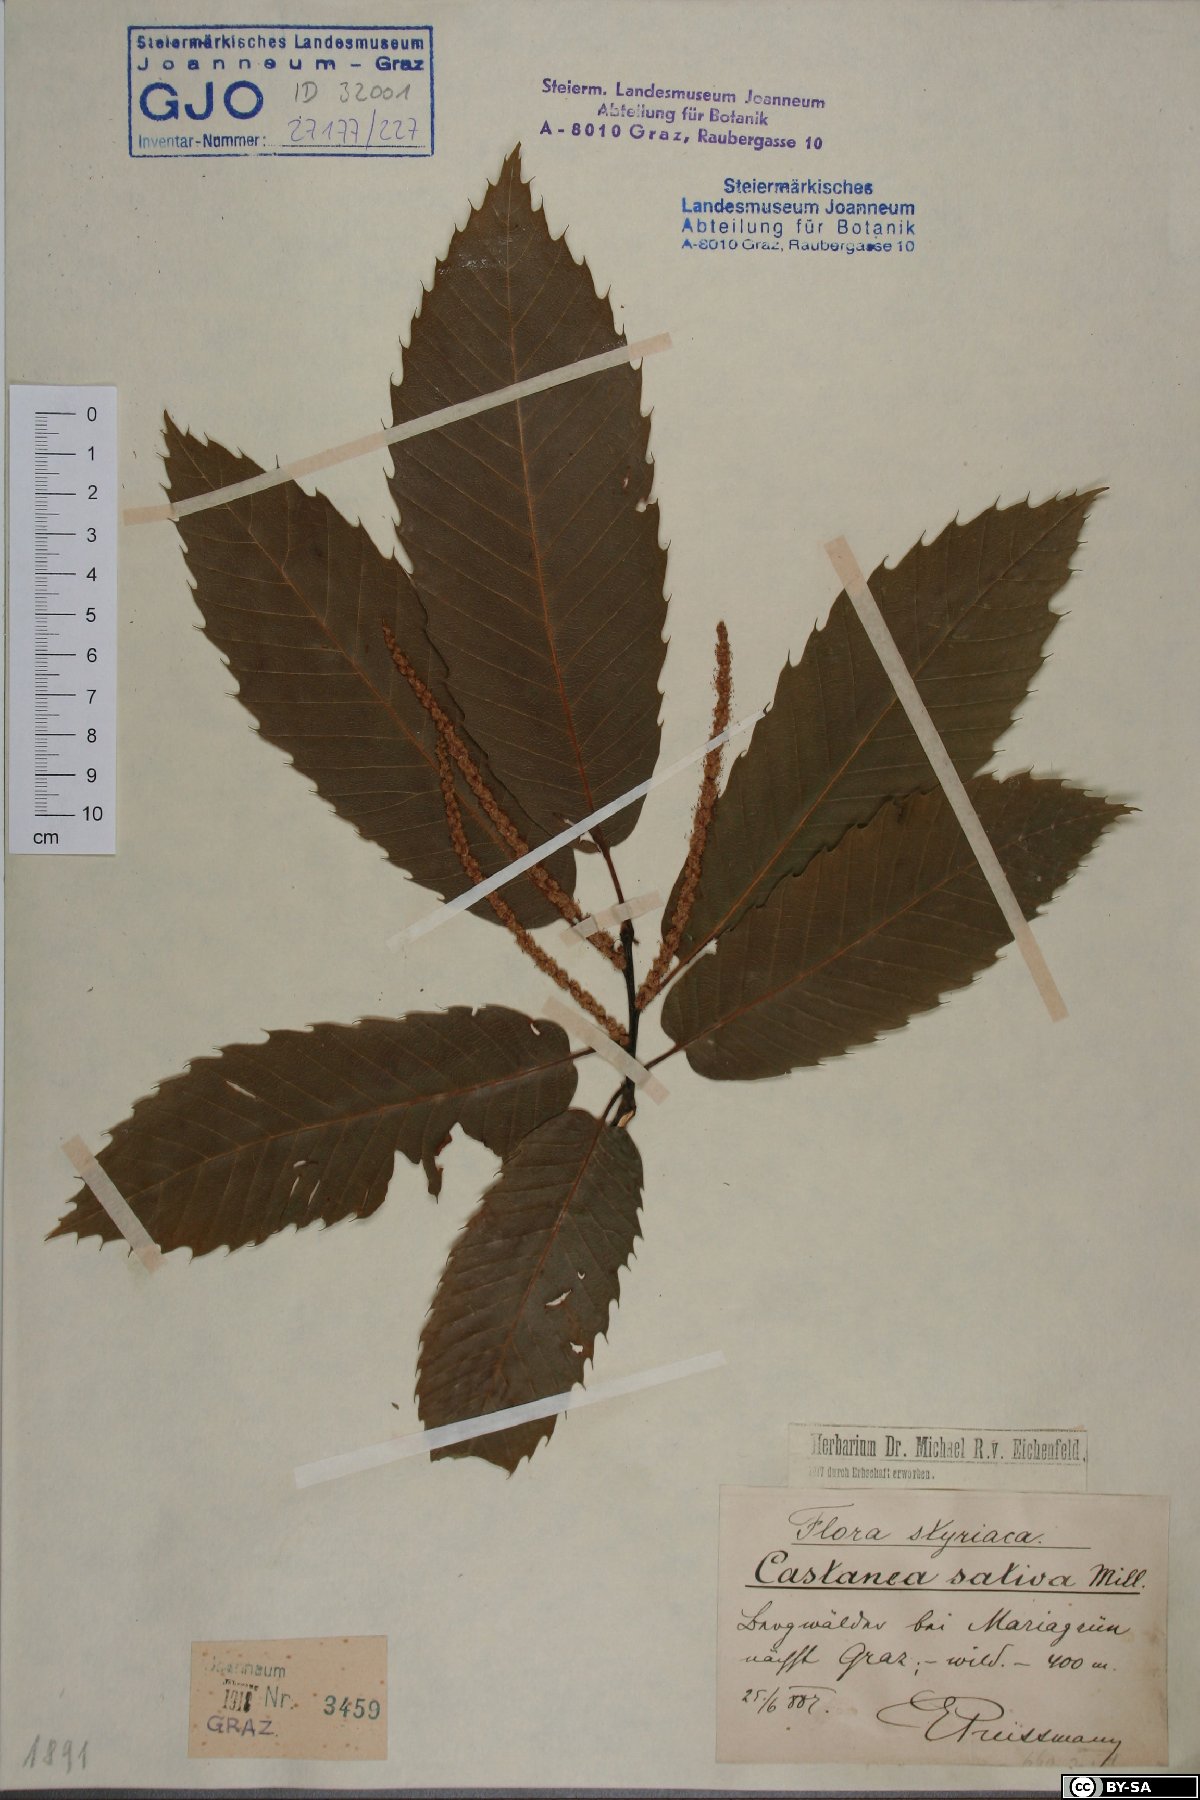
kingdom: Plantae
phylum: Tracheophyta
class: Magnoliopsida
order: Fagales
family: Fagaceae
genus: Castanea
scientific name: Castanea sativa
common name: Sweet chestnut
